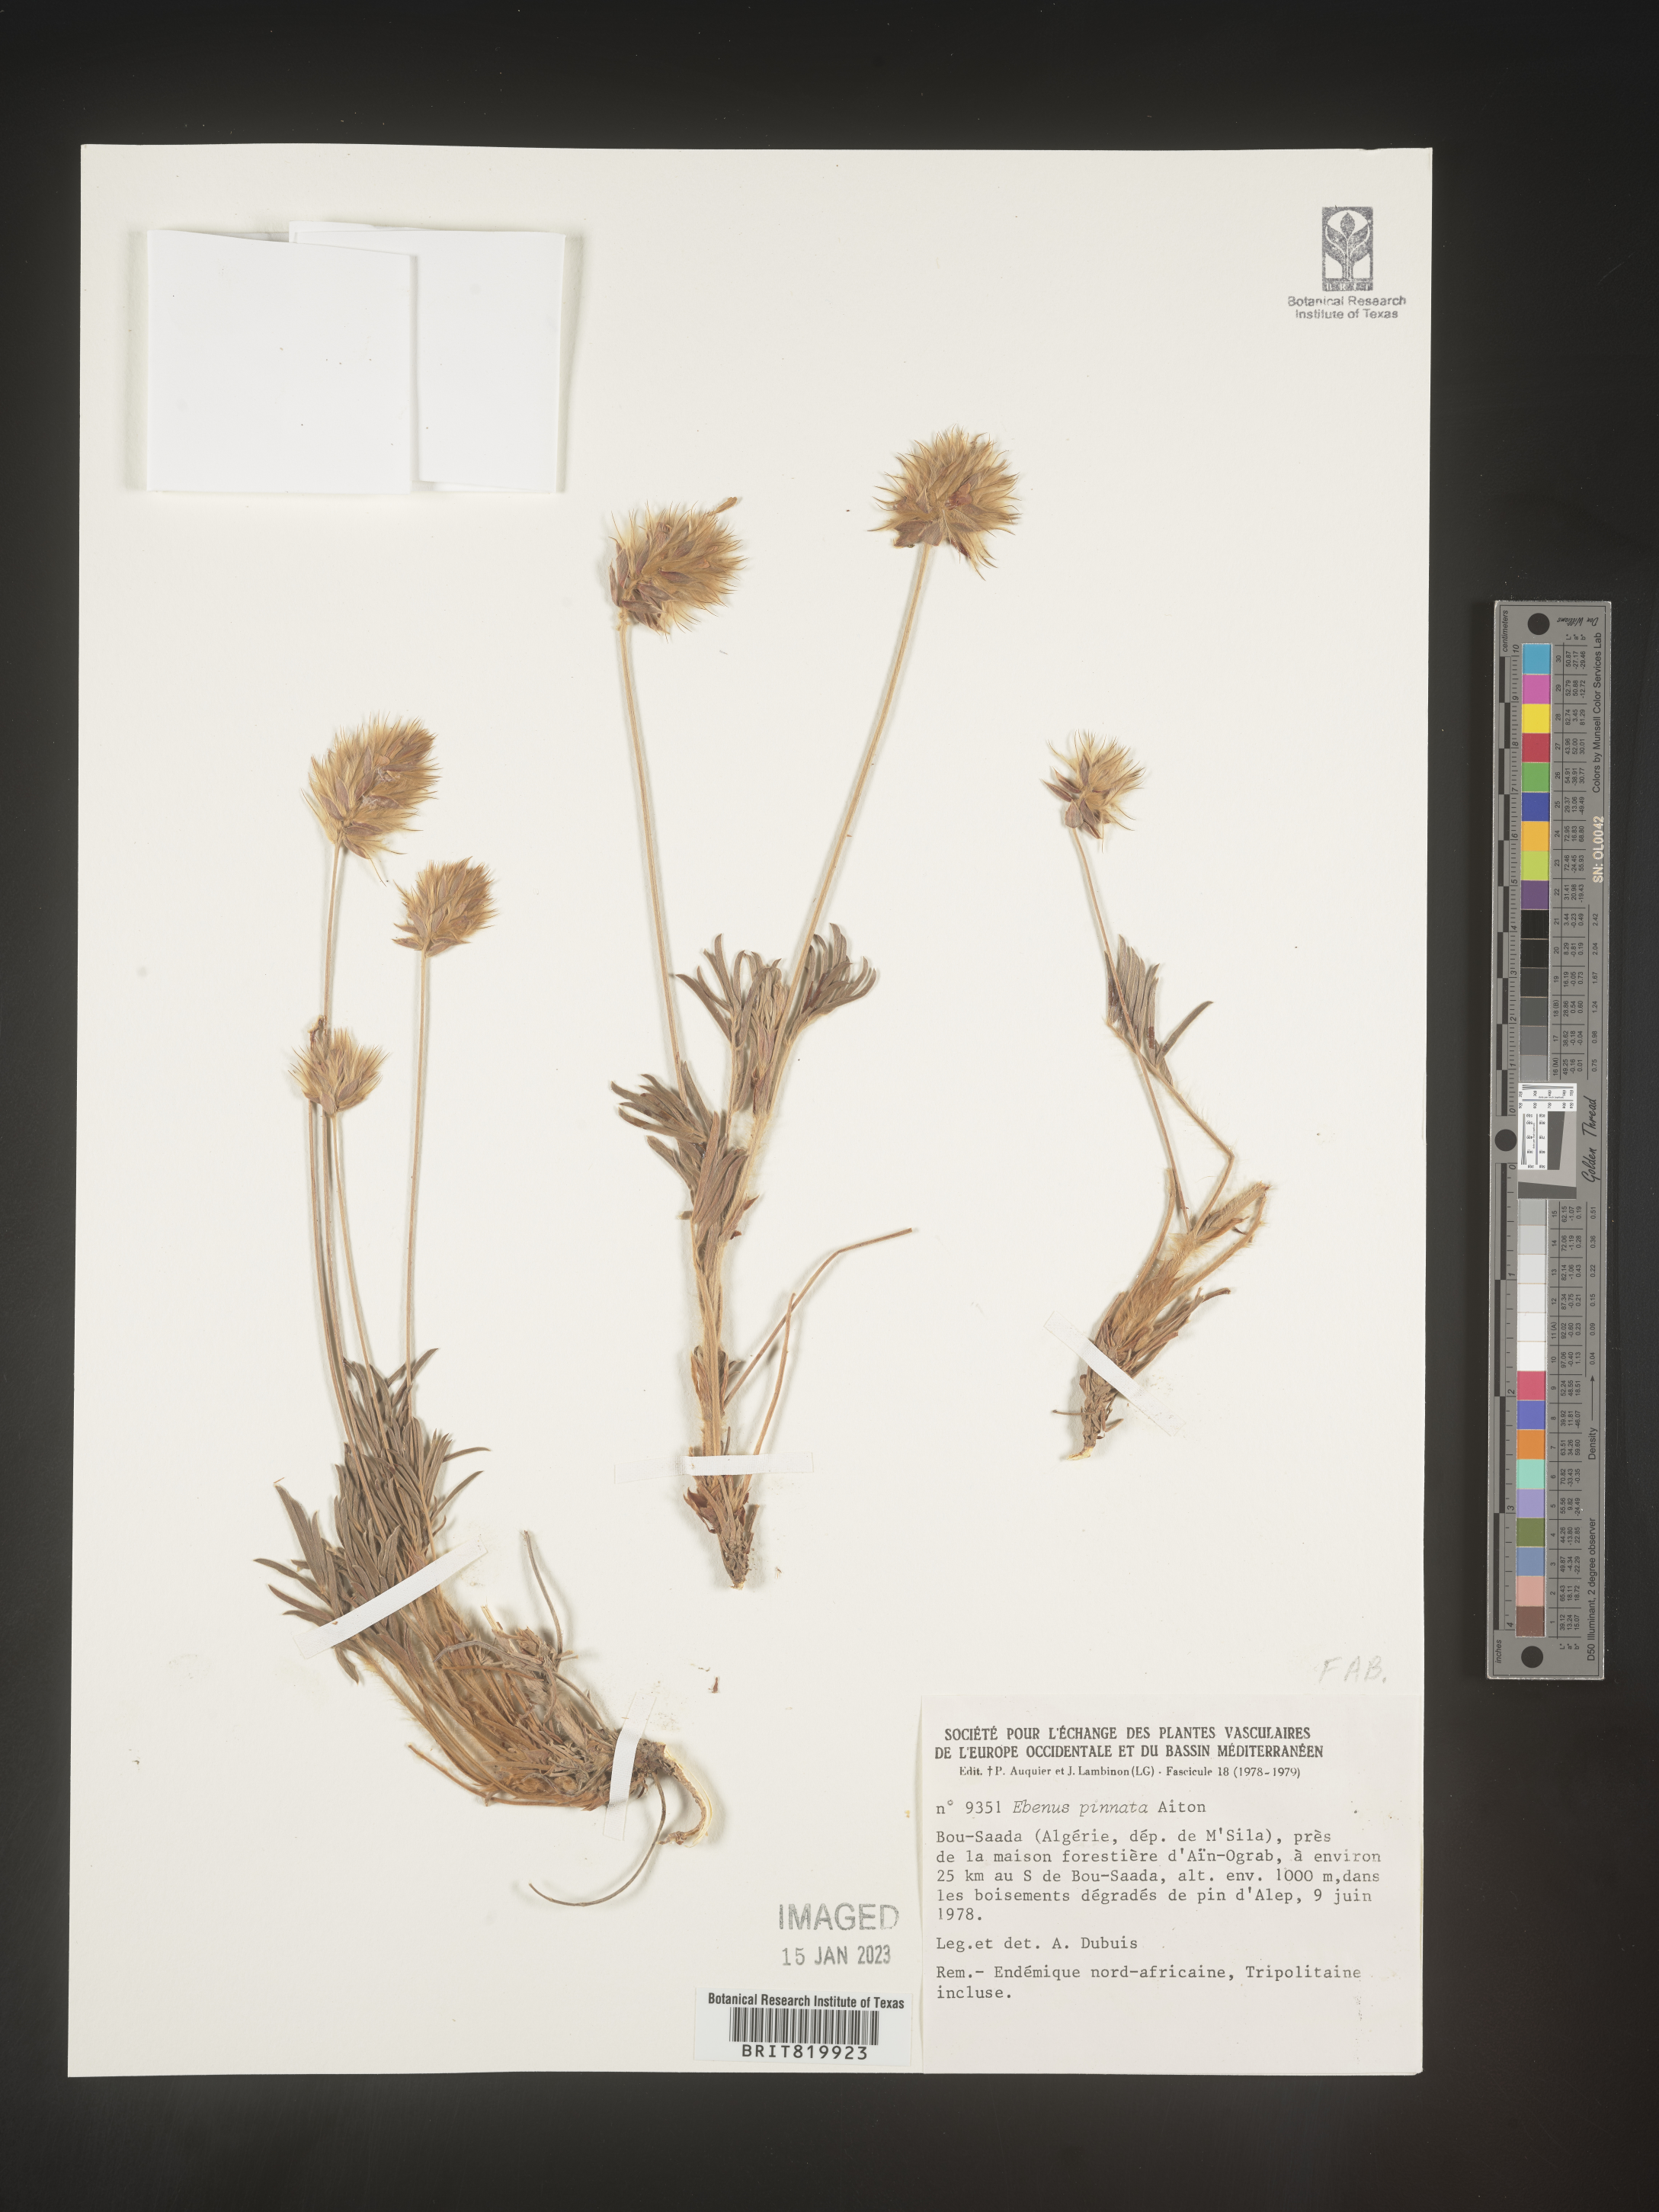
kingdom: Plantae
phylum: Tracheophyta
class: Magnoliopsida
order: Fabales
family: Fabaceae
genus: Ebenus
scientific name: Ebenus
